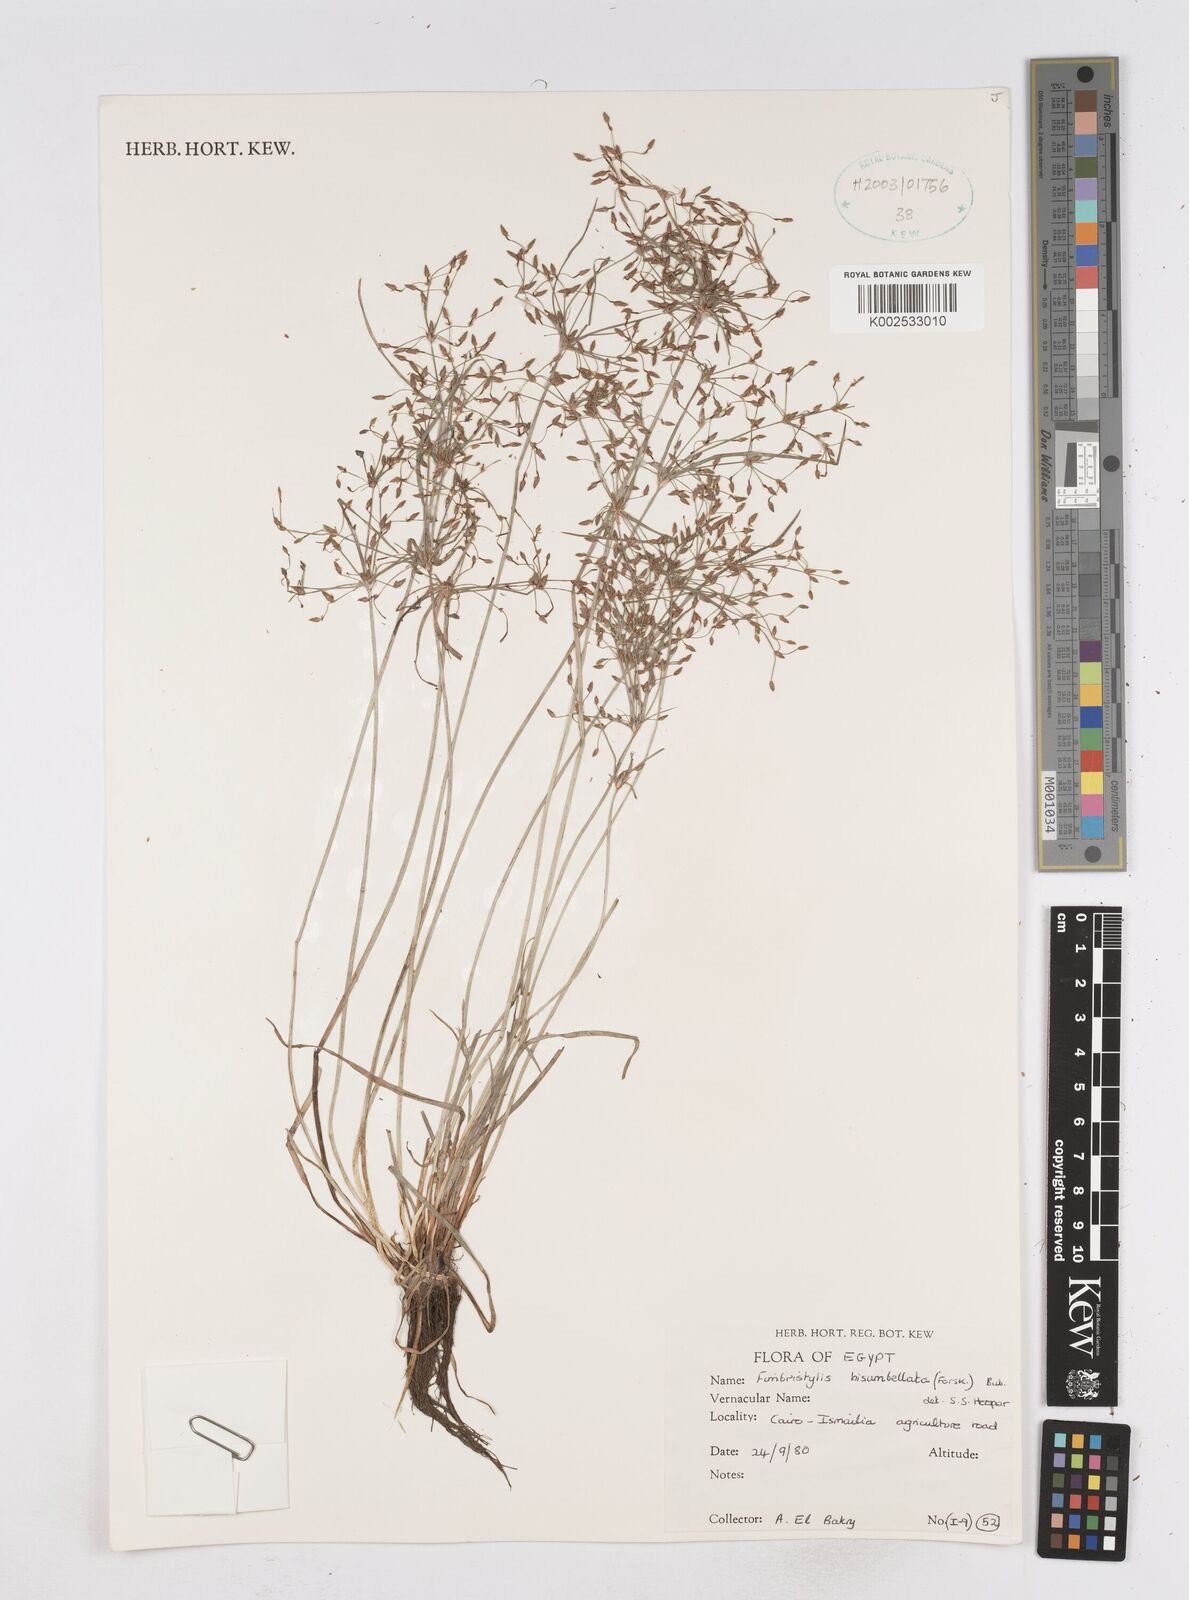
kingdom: Plantae
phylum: Tracheophyta
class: Liliopsida
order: Poales
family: Cyperaceae
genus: Fimbristylis
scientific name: Fimbristylis bisumbellata
